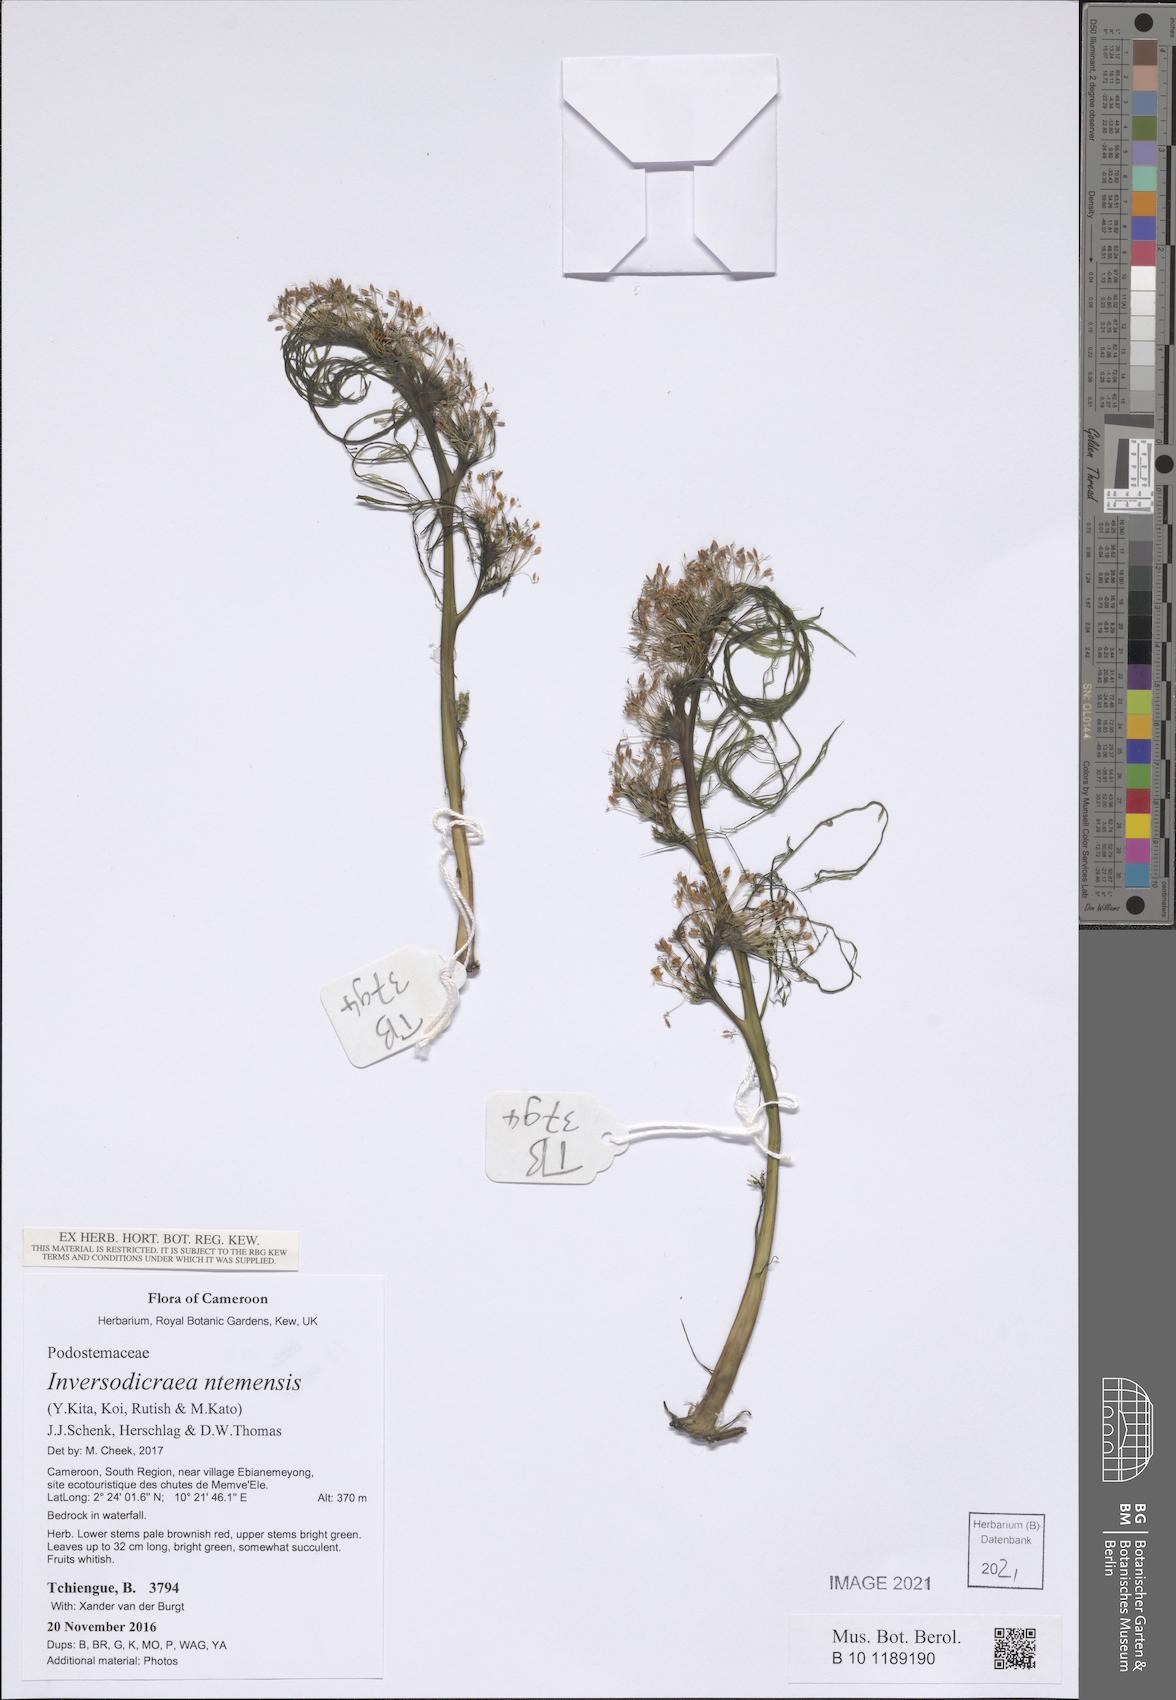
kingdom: Plantae
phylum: Tracheophyta
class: Magnoliopsida
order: Malpighiales
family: Podostemaceae
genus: Inversodicraea
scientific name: Inversodicraea ntemensis
